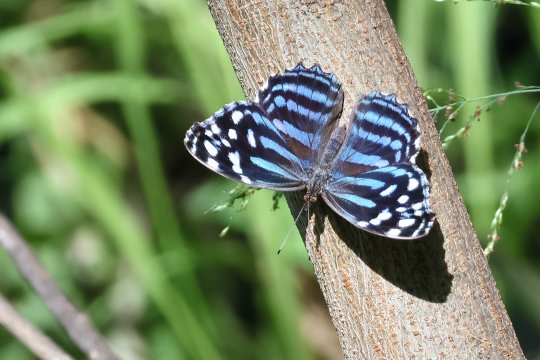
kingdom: Animalia
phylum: Arthropoda
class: Insecta
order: Lepidoptera
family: Nymphalidae
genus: Myscelia
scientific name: Myscelia ethusa
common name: Mexican Bluewing
